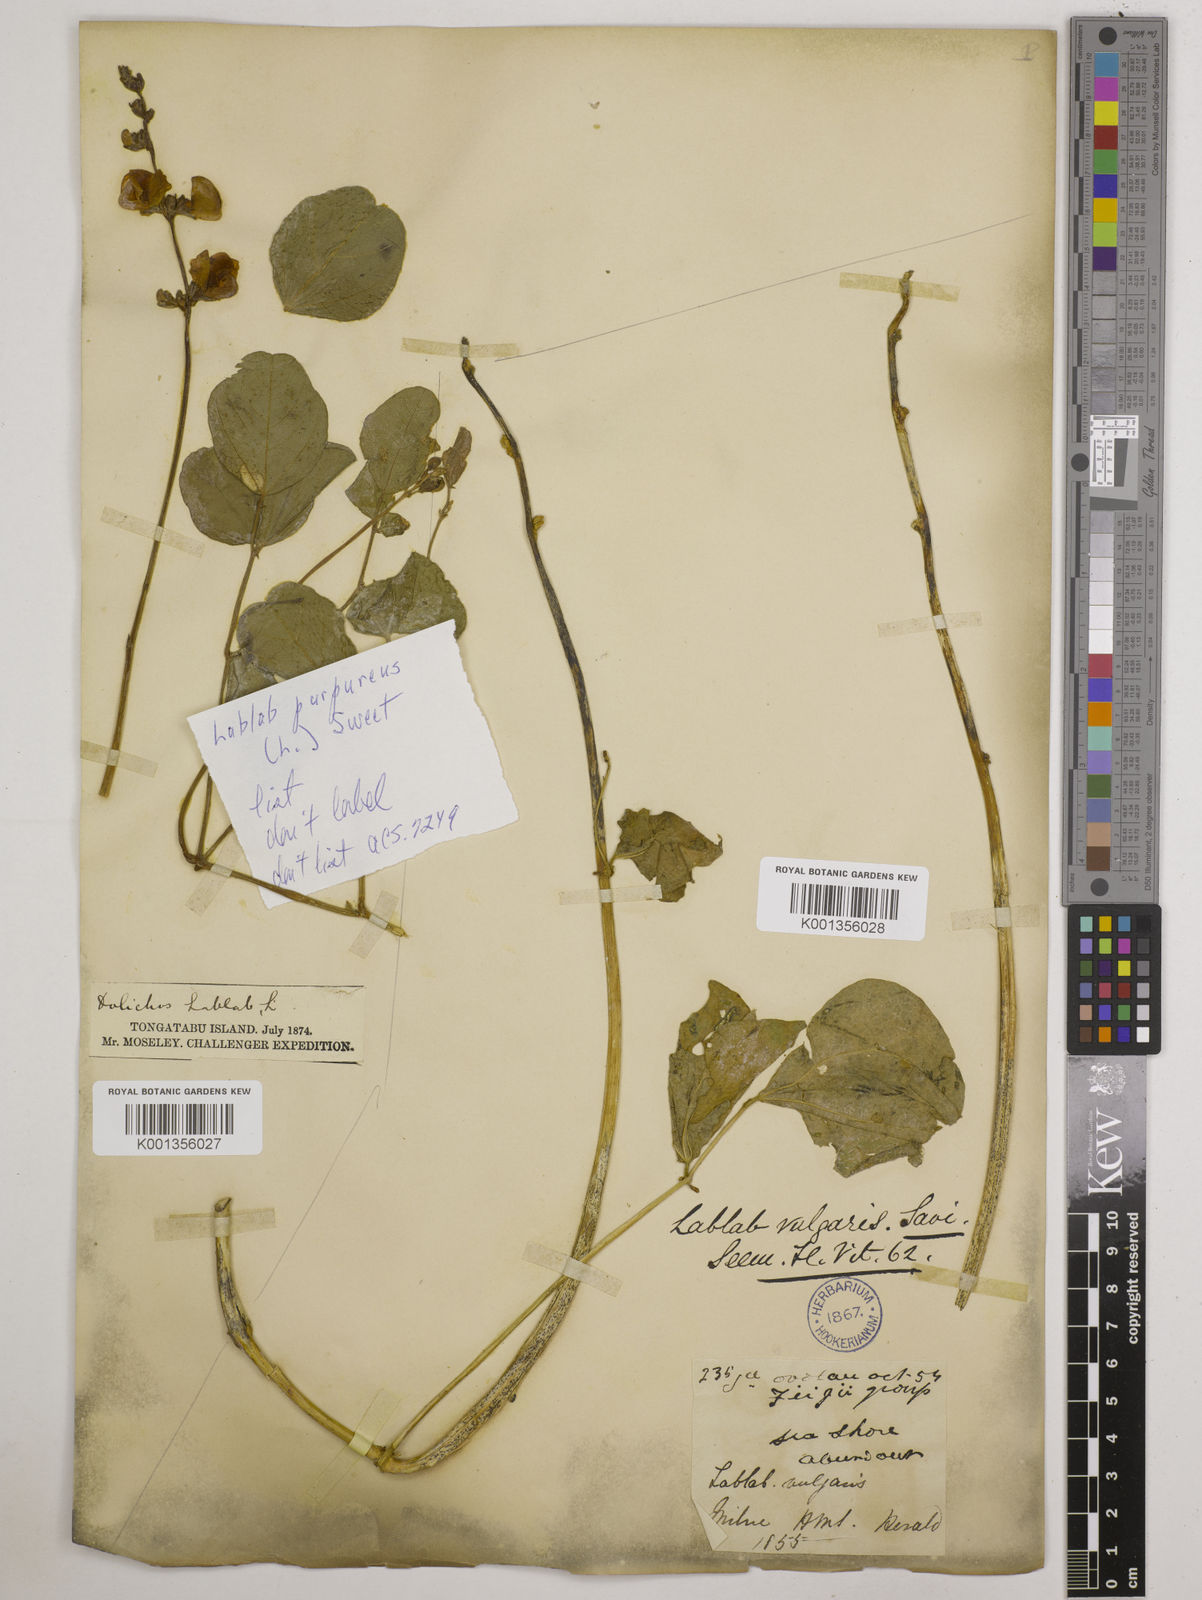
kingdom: Plantae
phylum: Tracheophyta
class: Magnoliopsida
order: Fabales
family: Fabaceae
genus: Lablab
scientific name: Lablab purpureus
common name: Lablab-bean
